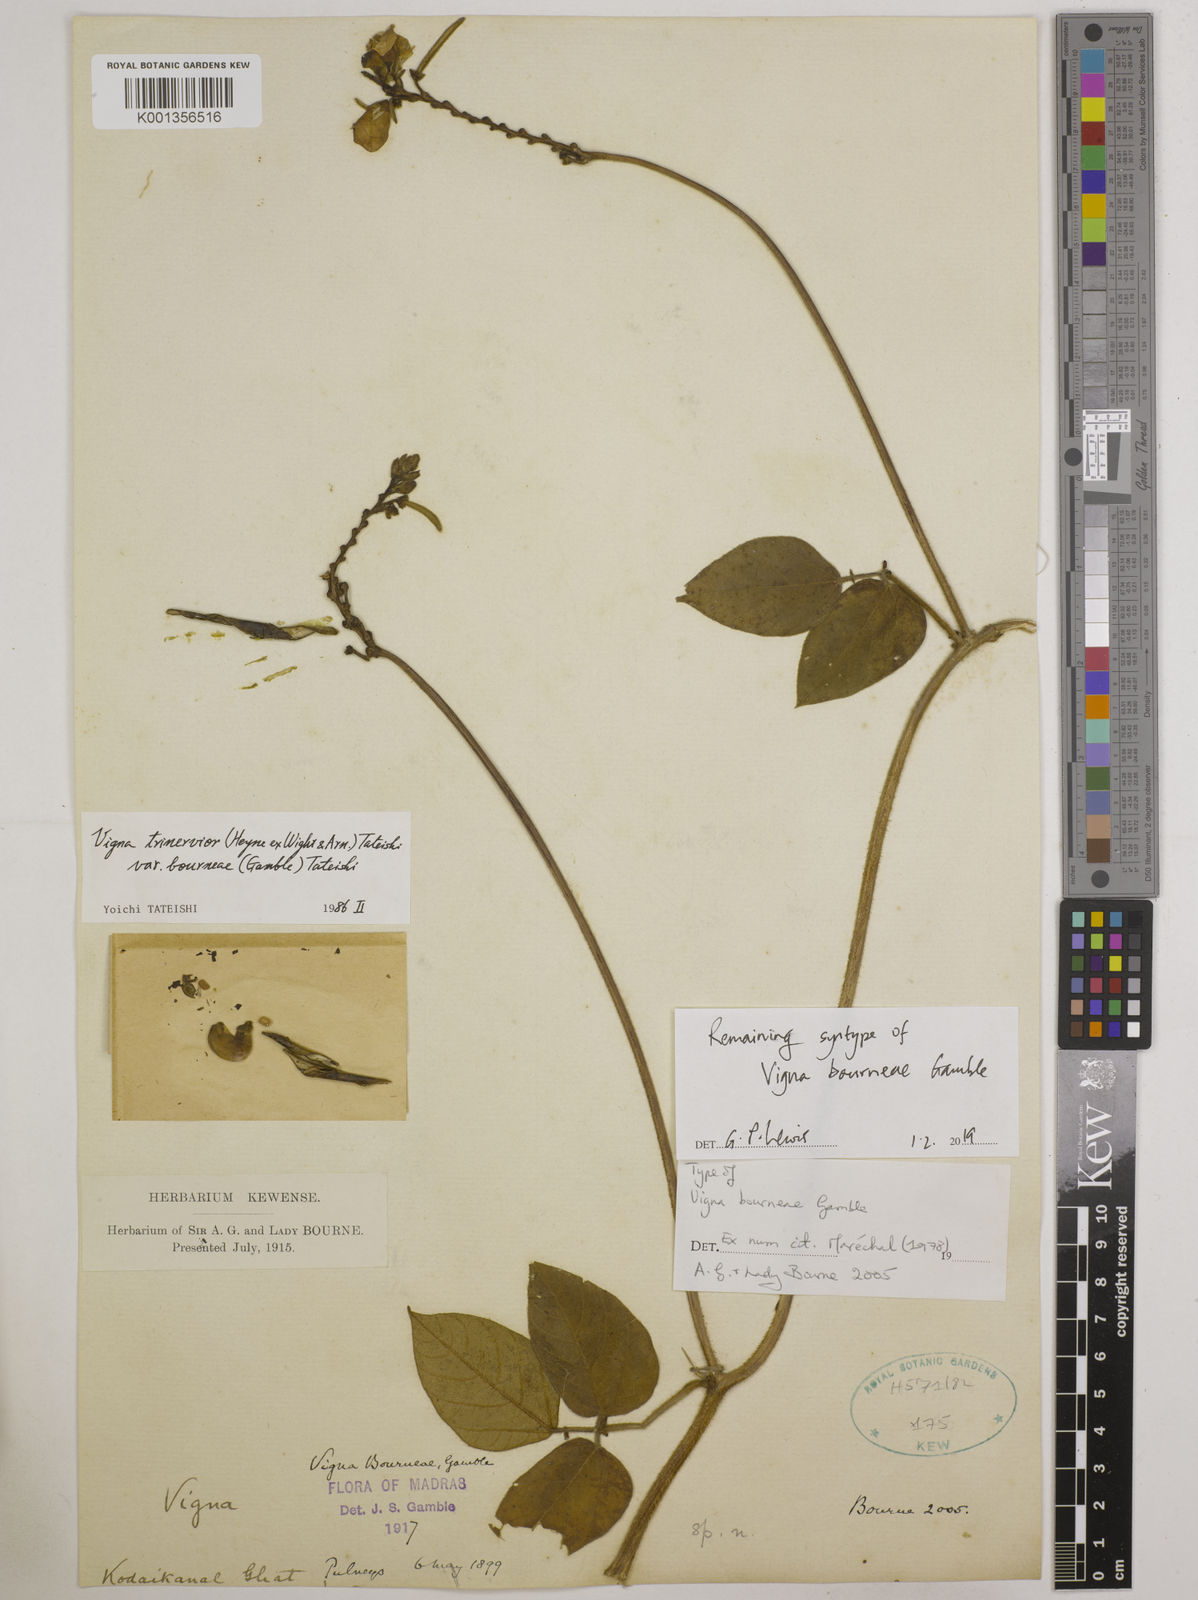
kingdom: Plantae
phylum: Tracheophyta
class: Magnoliopsida
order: Fabales
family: Fabaceae
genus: Vigna
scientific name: Vigna
